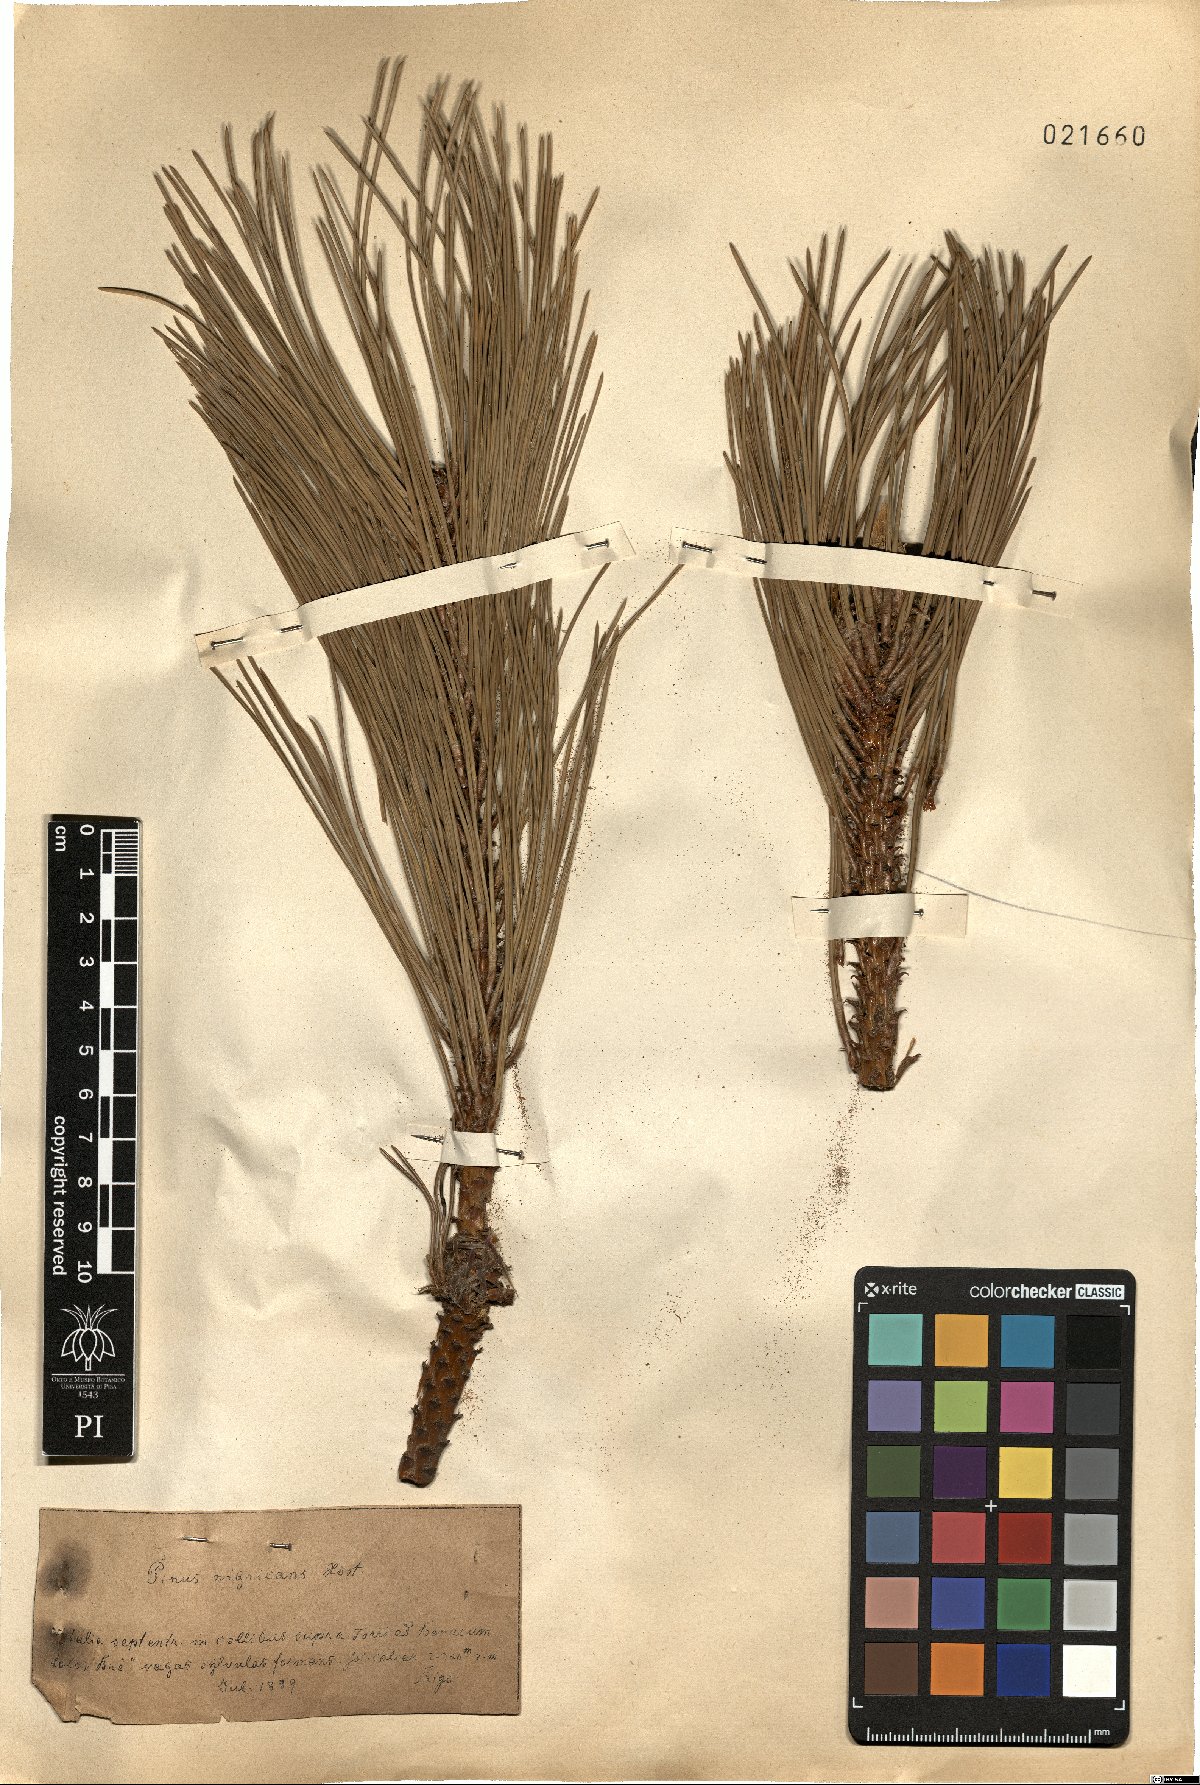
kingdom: Plantae
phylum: Tracheophyta
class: Pinopsida
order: Pinales
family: Pinaceae
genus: Pinus
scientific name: Pinus nigra
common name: Austrian pine
